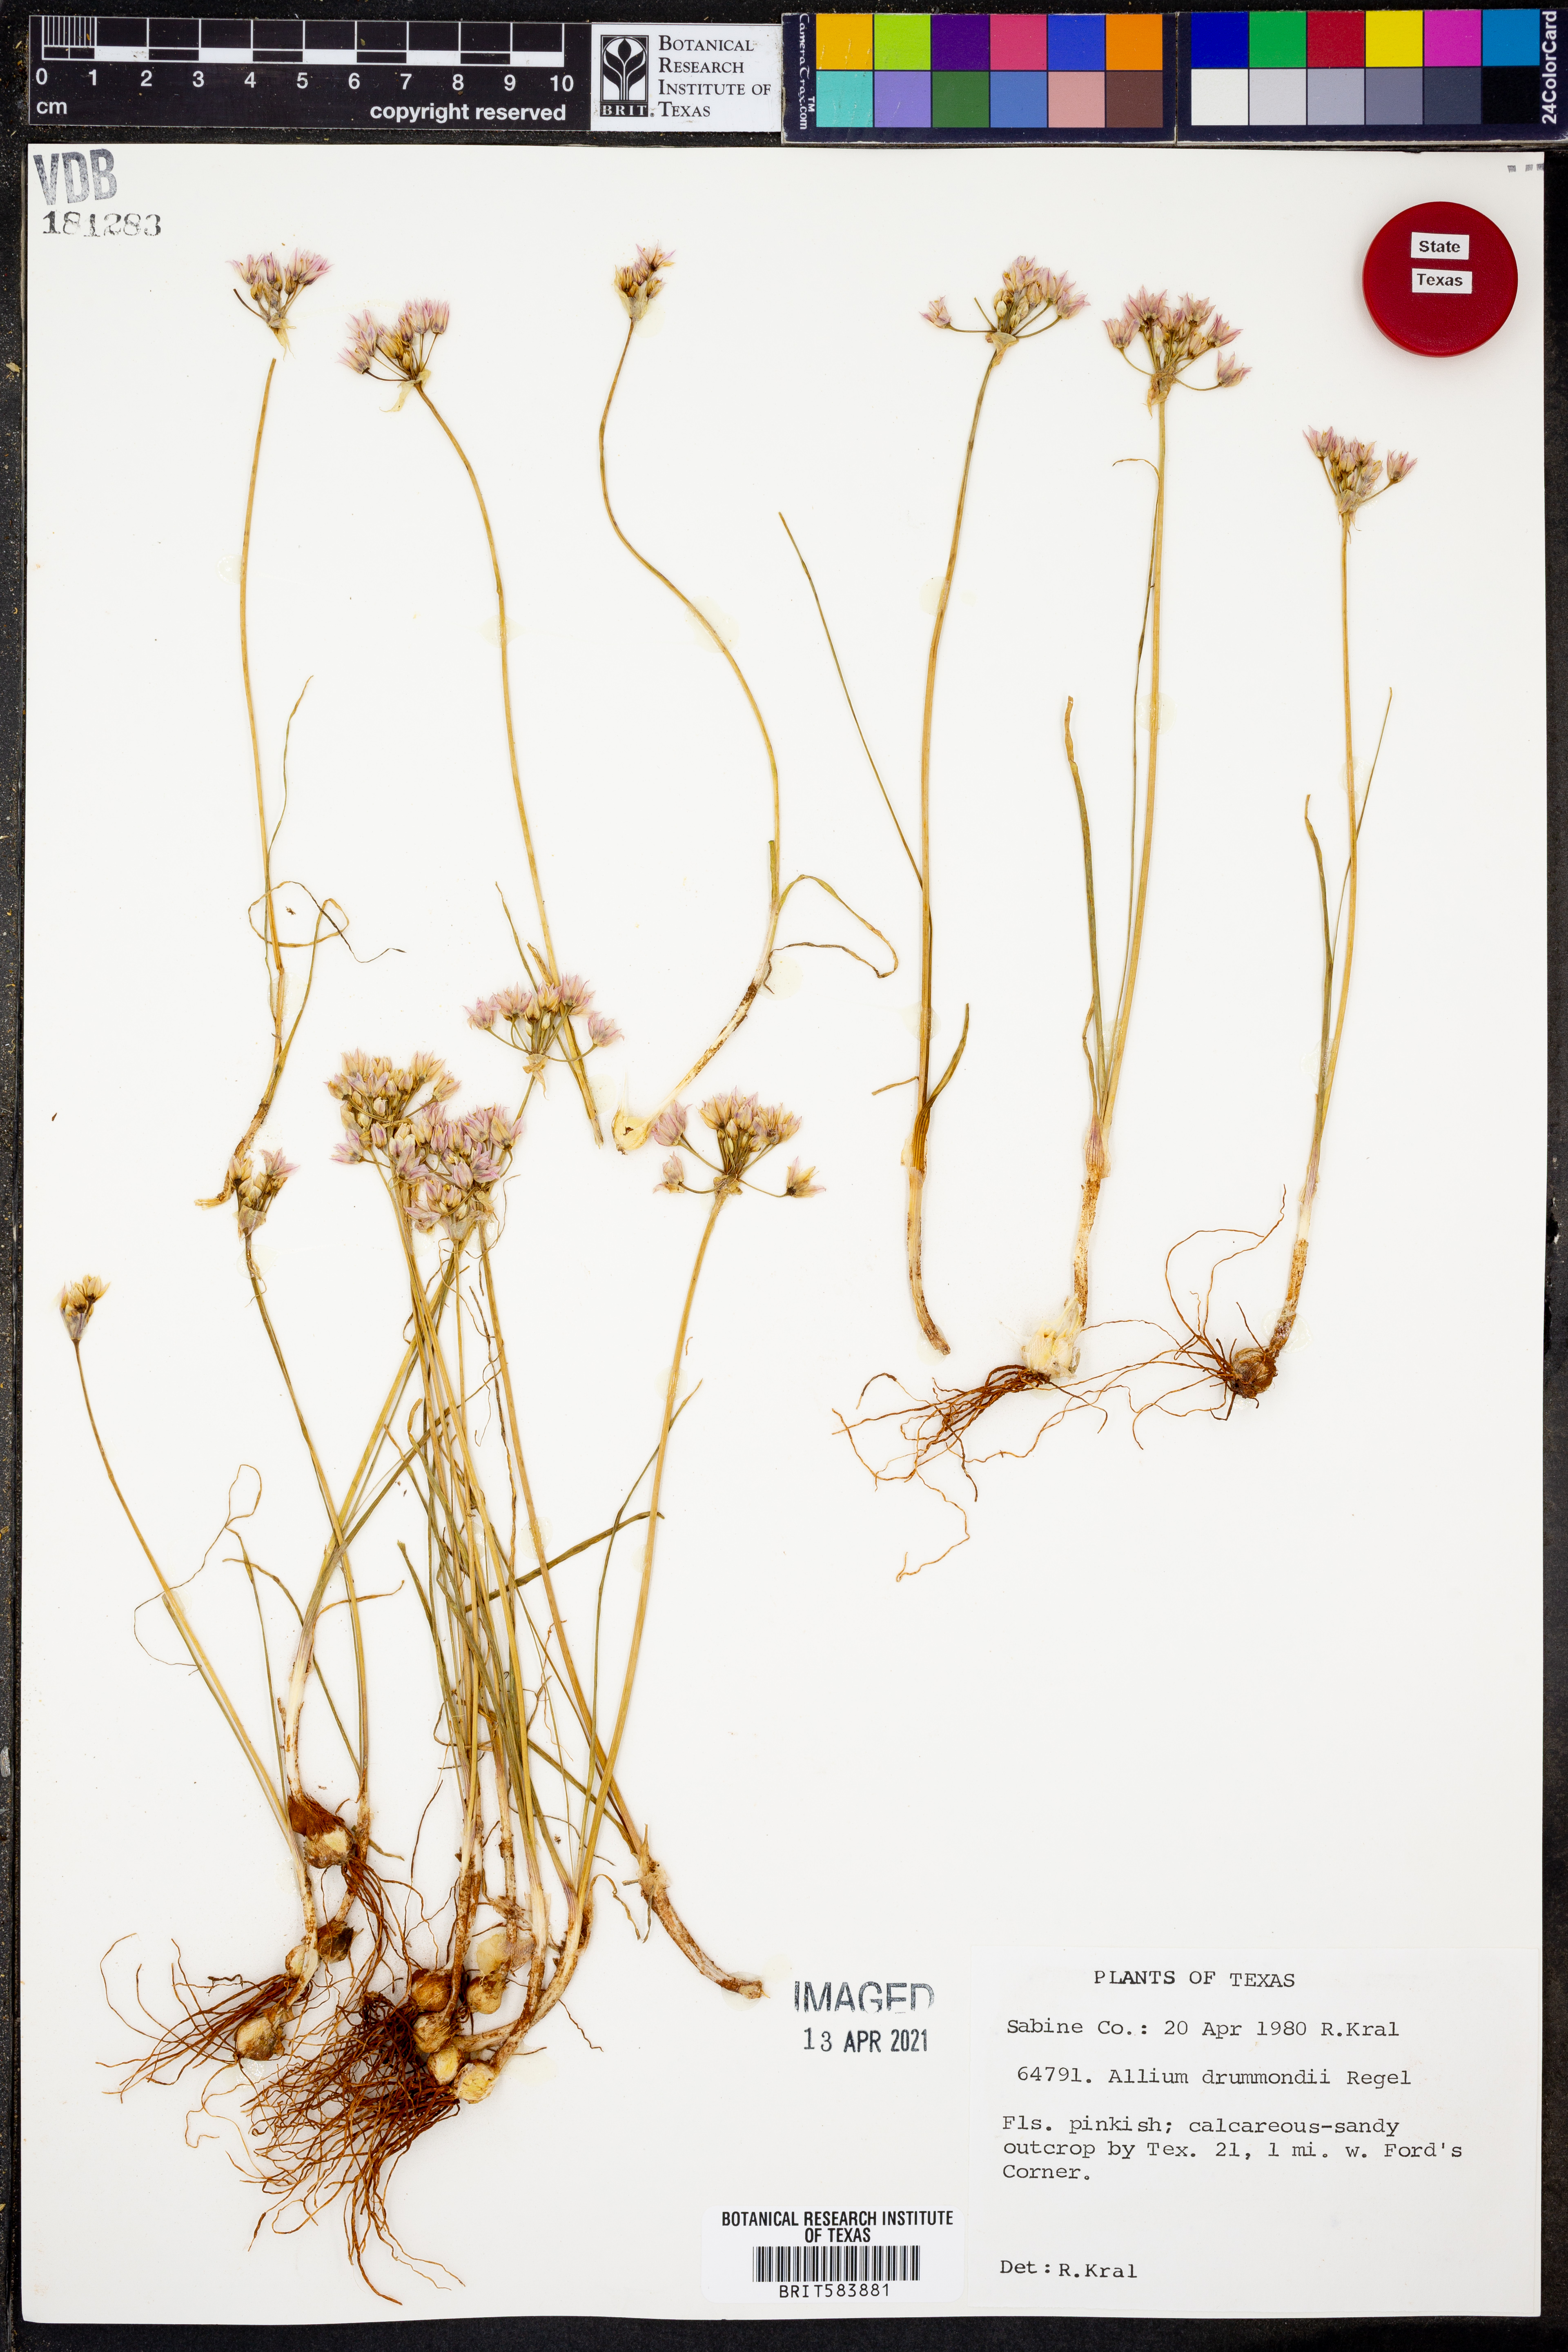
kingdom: Plantae
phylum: Tracheophyta
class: Liliopsida
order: Asparagales
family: Amaryllidaceae
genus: Allium
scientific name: Allium drummondii
